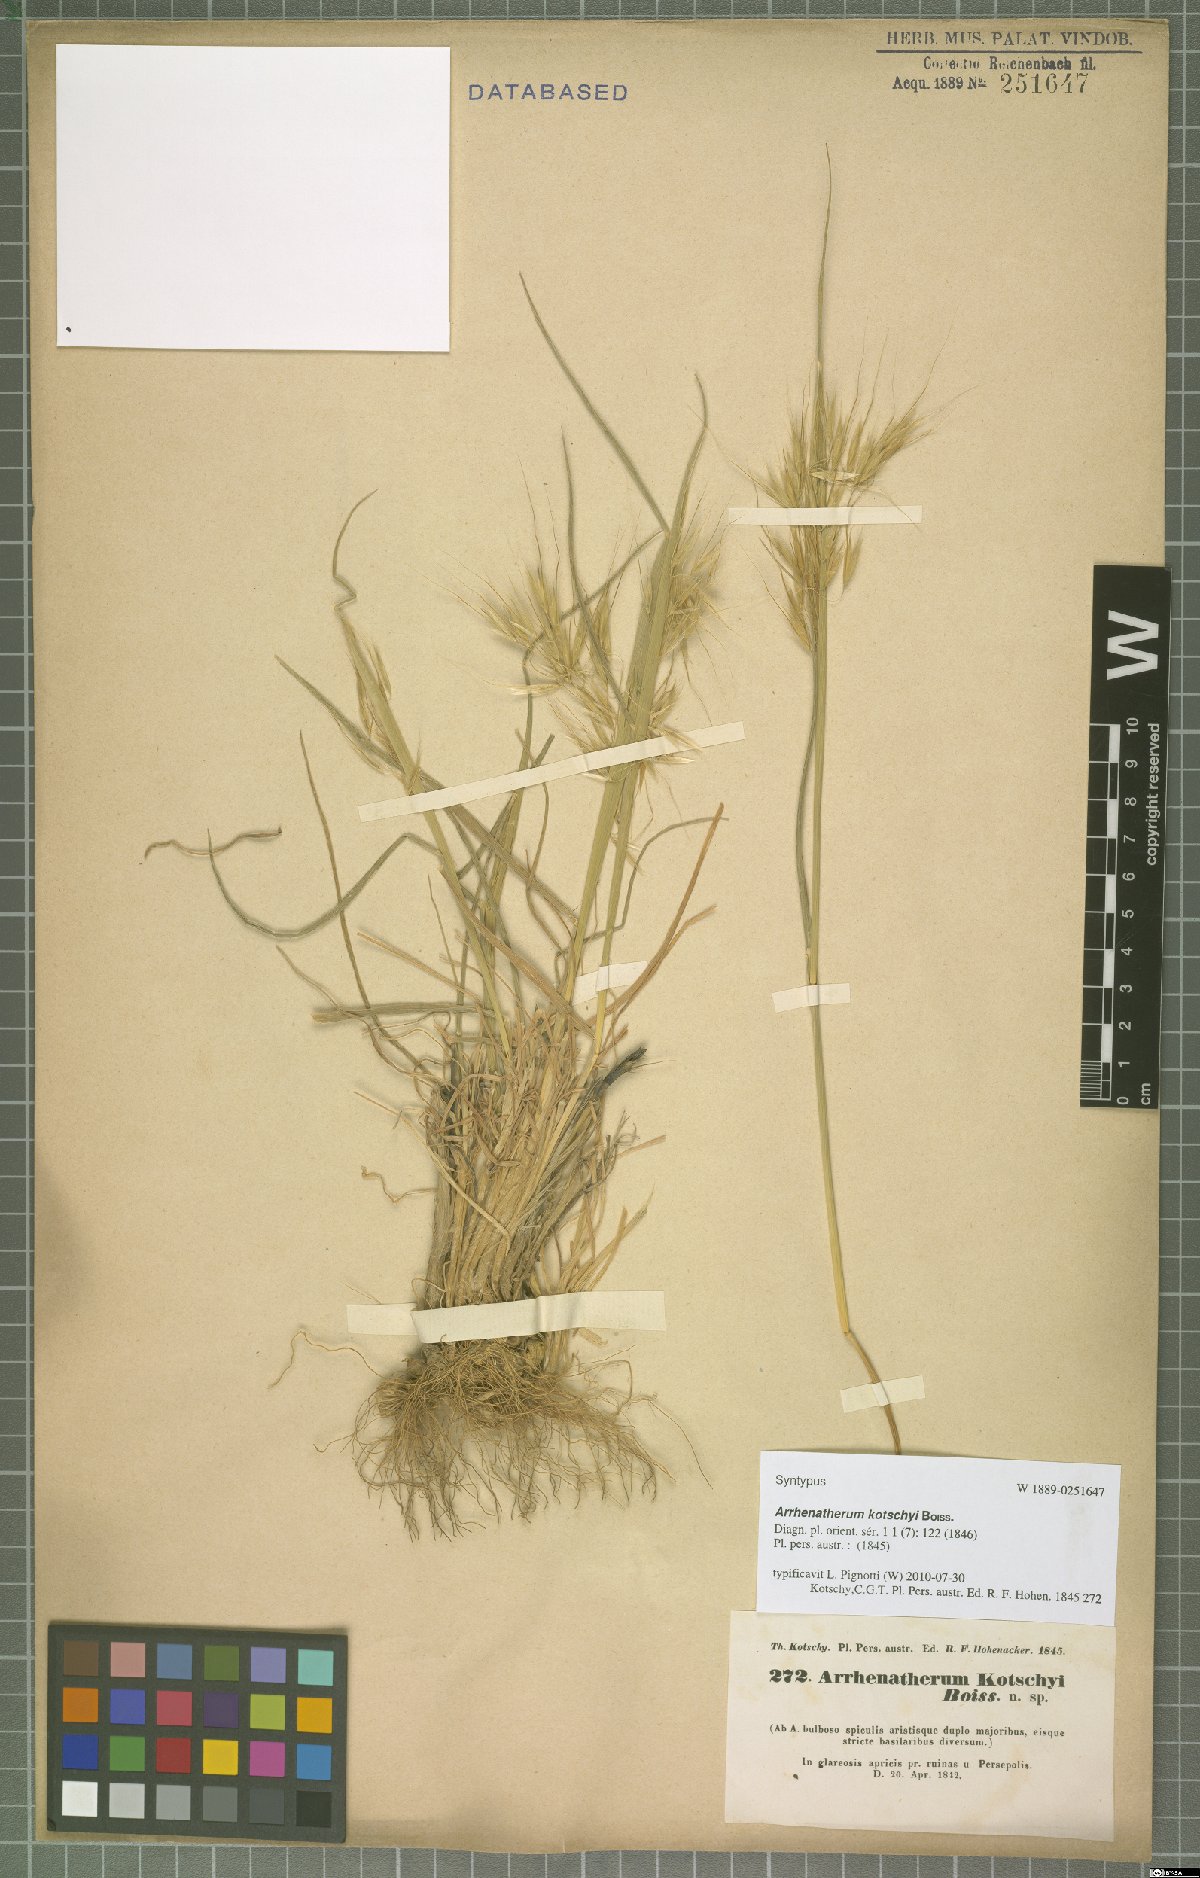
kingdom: Plantae
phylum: Tracheophyta
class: Liliopsida
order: Poales
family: Poaceae
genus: Arrhenatherum
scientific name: Arrhenatherum kotschyi
